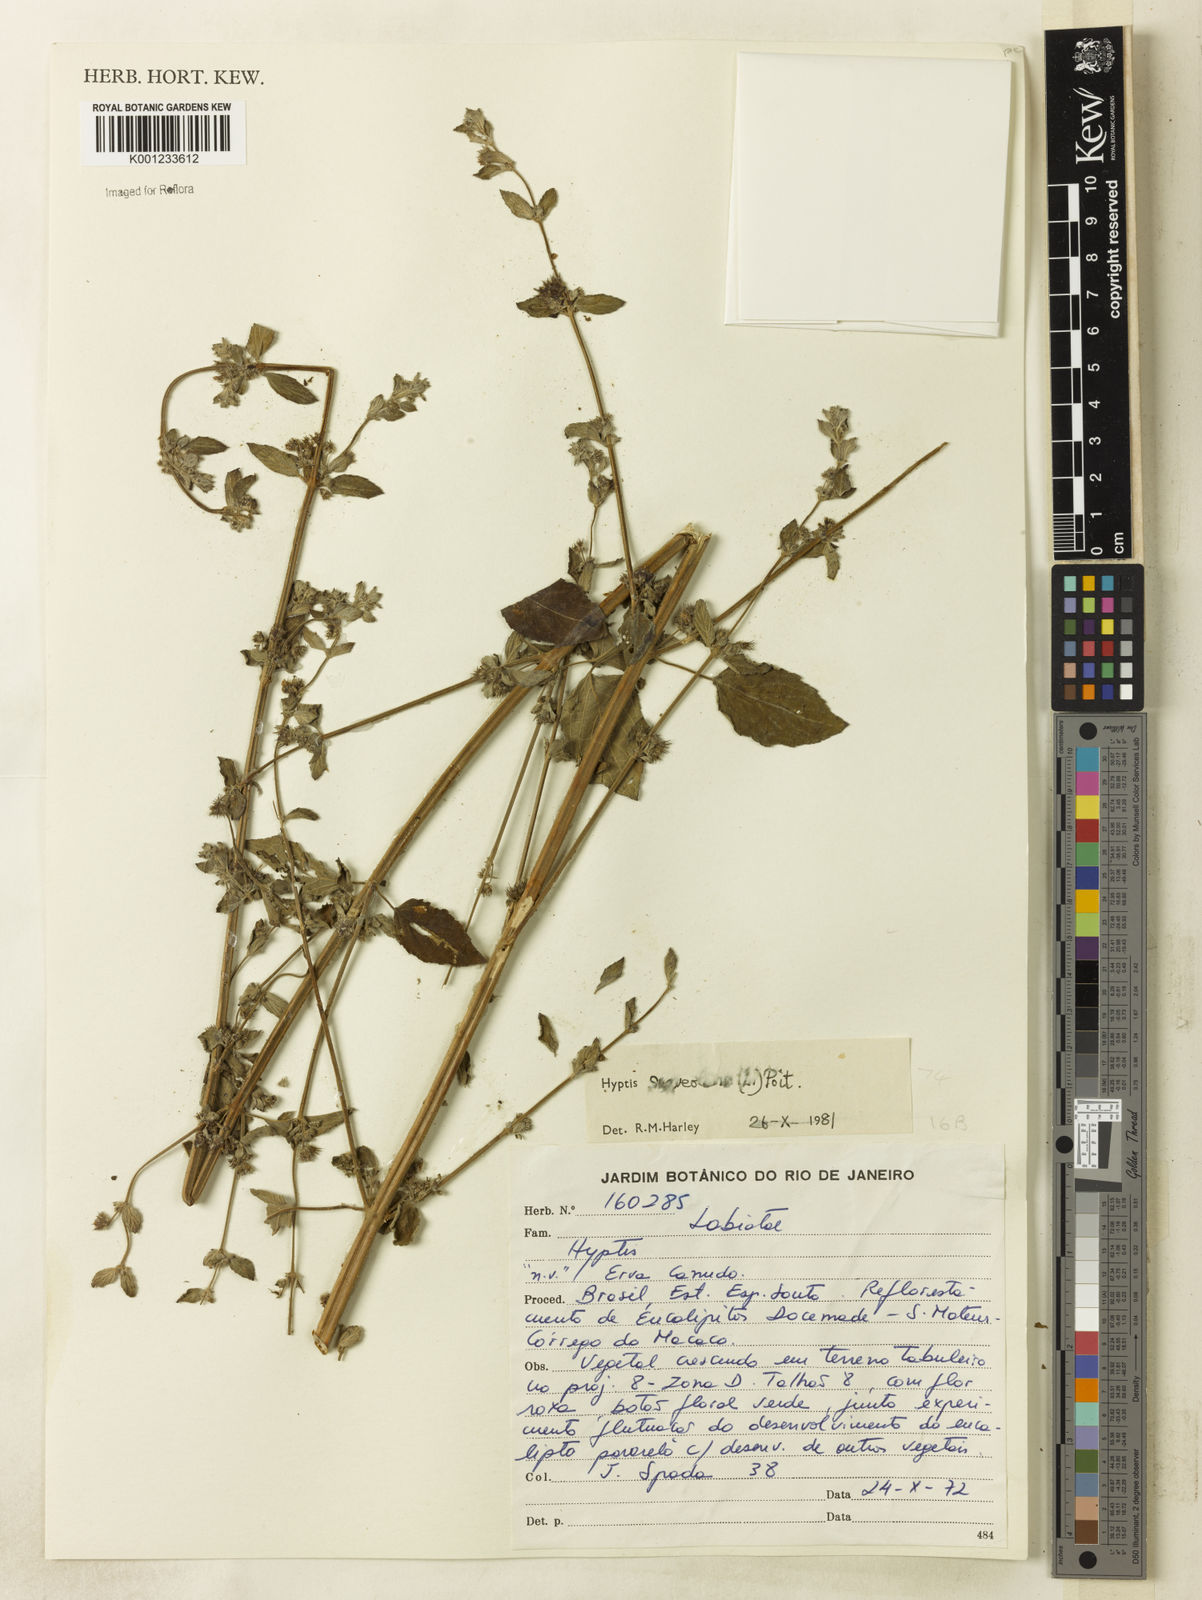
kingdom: Plantae
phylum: Tracheophyta
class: Magnoliopsida
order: Lamiales
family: Lamiaceae
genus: Mesosphaerum
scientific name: Mesosphaerum suaveolens
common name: Pignut
